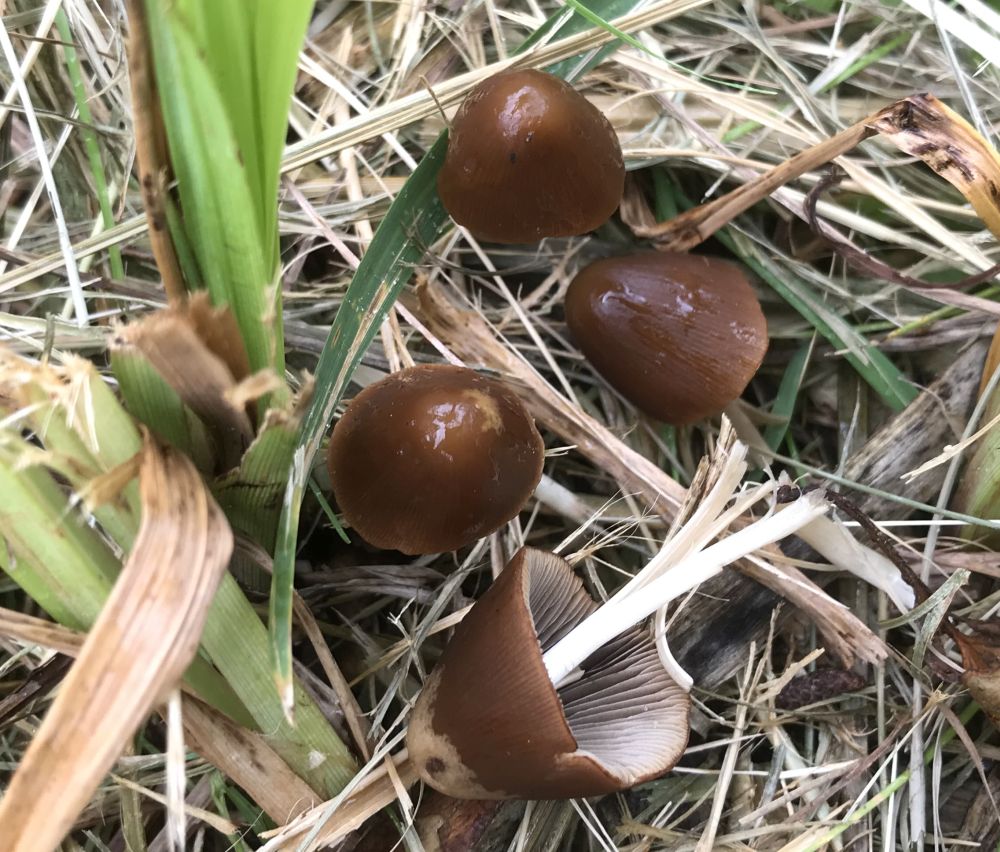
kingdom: Fungi
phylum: Basidiomycota
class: Agaricomycetes
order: Agaricales
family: Psathyrellaceae
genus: Parasola
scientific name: Parasola conopilea
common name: kegle-hjulhat
